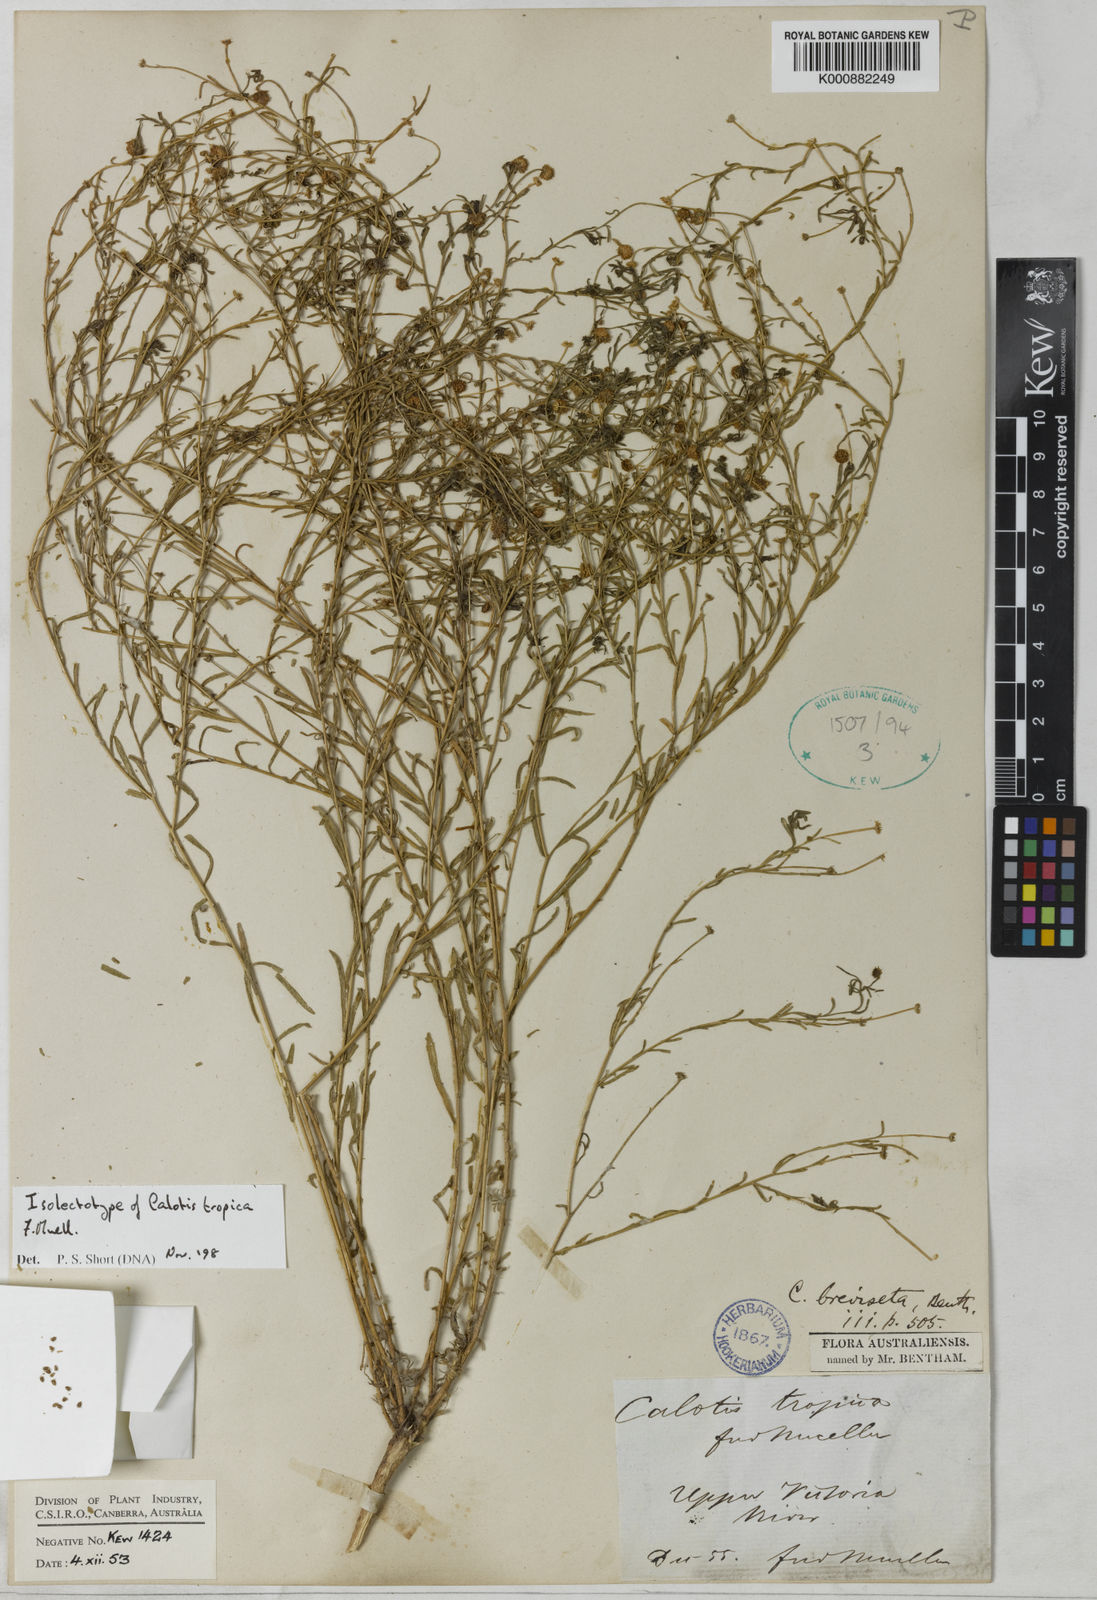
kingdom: Plantae
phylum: Tracheophyta
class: Magnoliopsida
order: Asterales
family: Asteraceae
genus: Calotis
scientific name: Calotis breviseta
